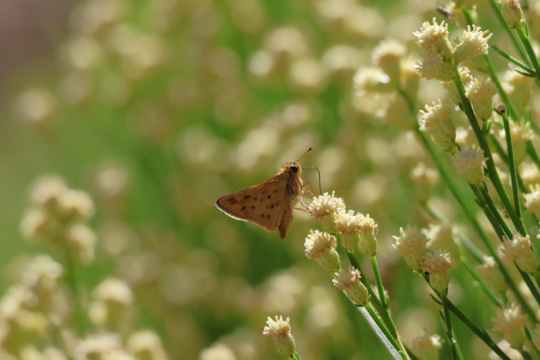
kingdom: Animalia
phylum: Arthropoda
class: Insecta
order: Lepidoptera
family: Hesperiidae
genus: Hylephila
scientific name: Hylephila phyleus
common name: Fiery Skipper
